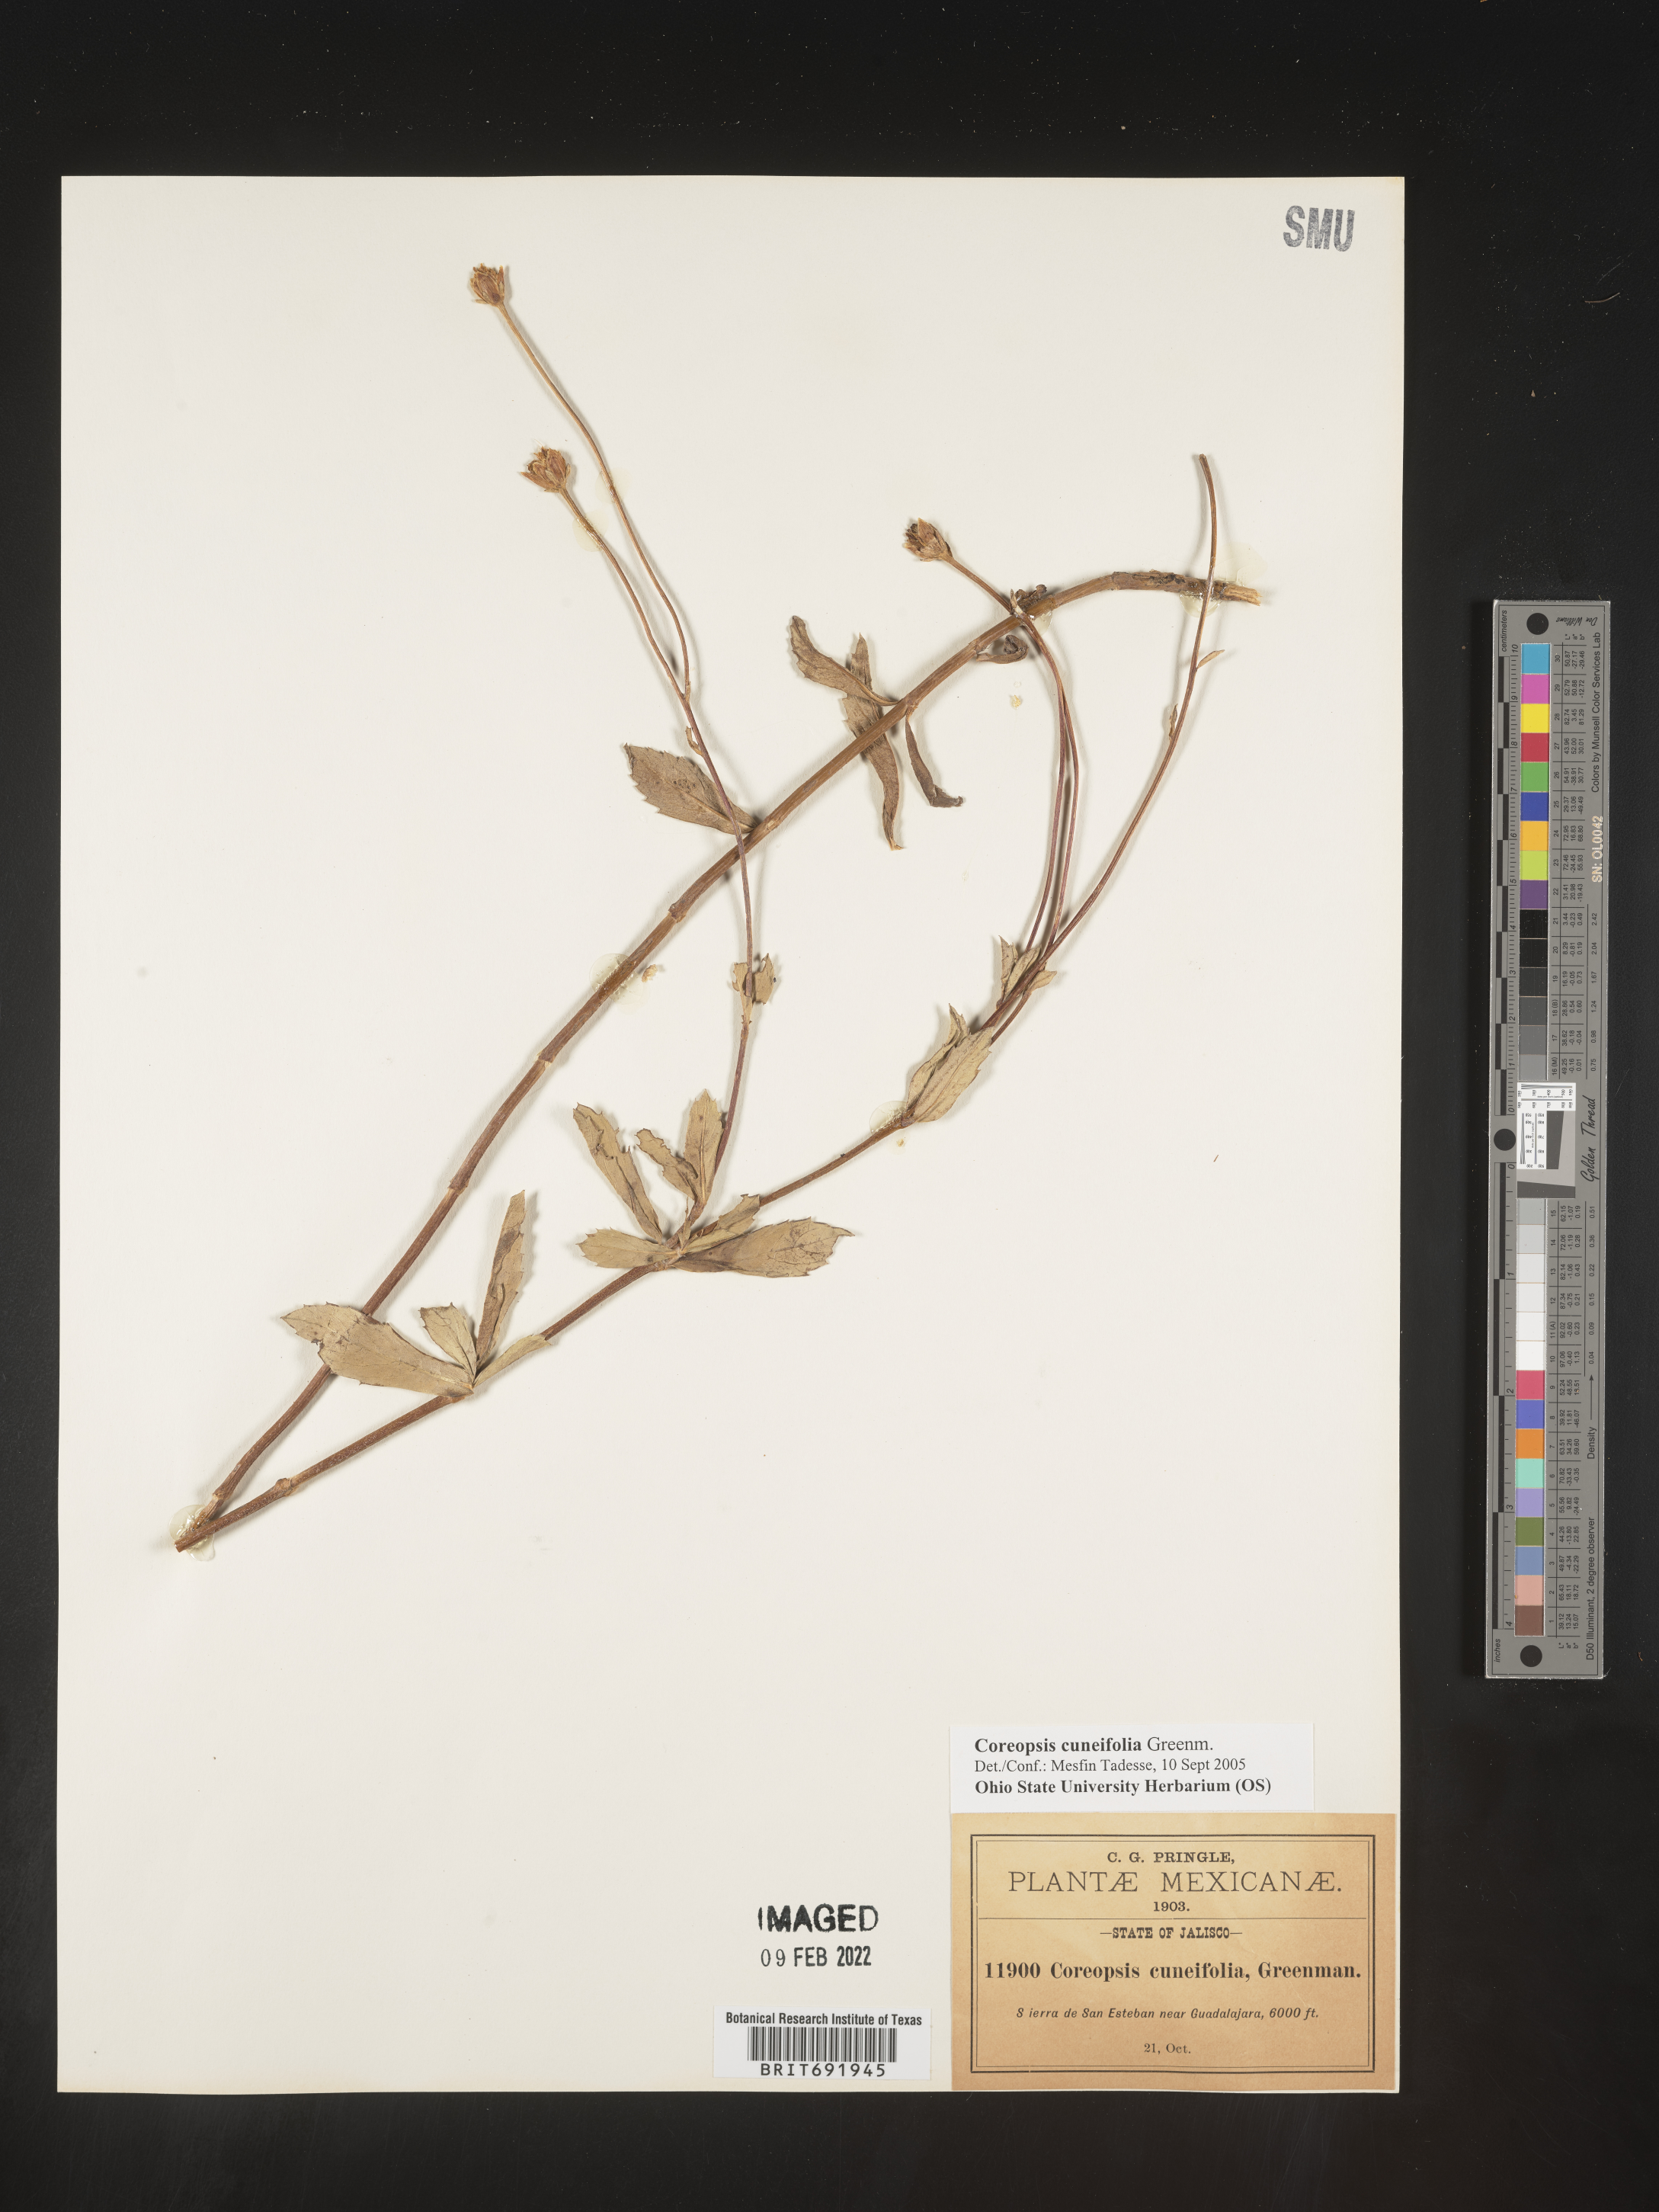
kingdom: Plantae
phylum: Tracheophyta
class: Magnoliopsida
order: Asterales
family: Asteraceae
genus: Coreopsis
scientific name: Coreopsis
